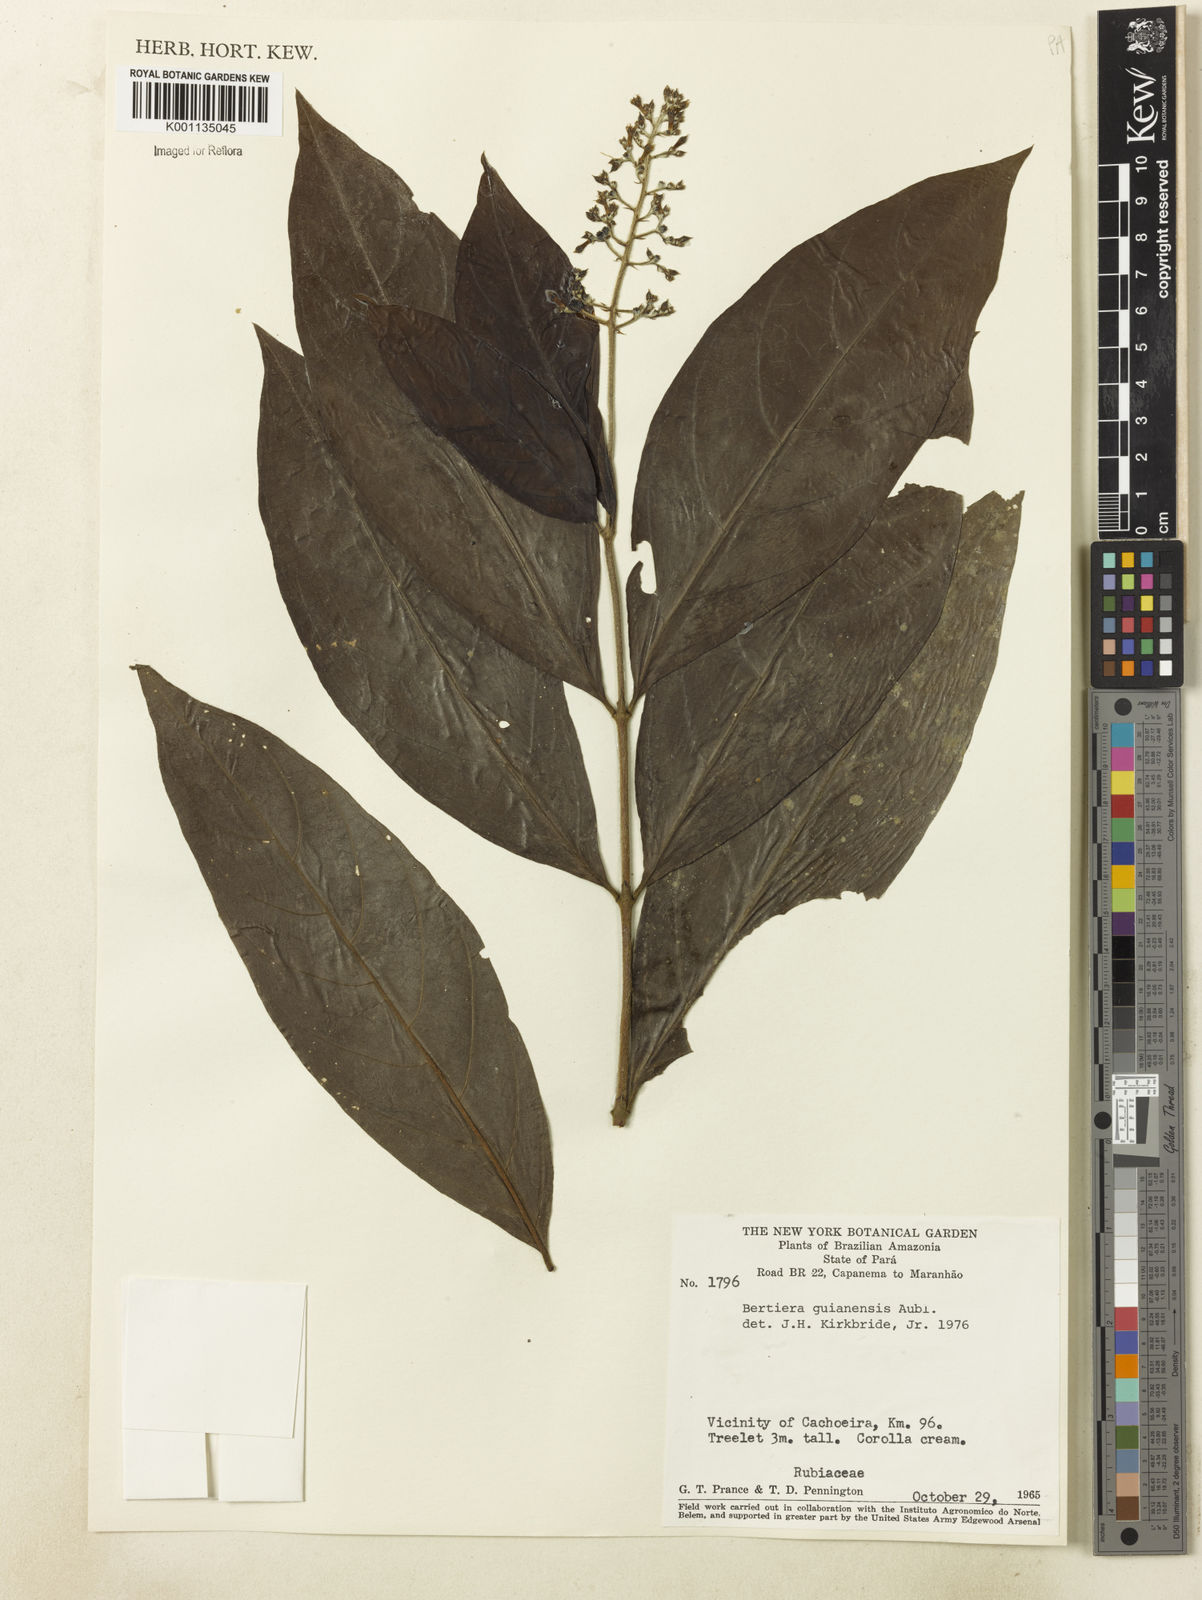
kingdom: Plantae
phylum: Tracheophyta
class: Magnoliopsida
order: Gentianales
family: Rubiaceae
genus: Bertiera
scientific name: Bertiera guianensis
